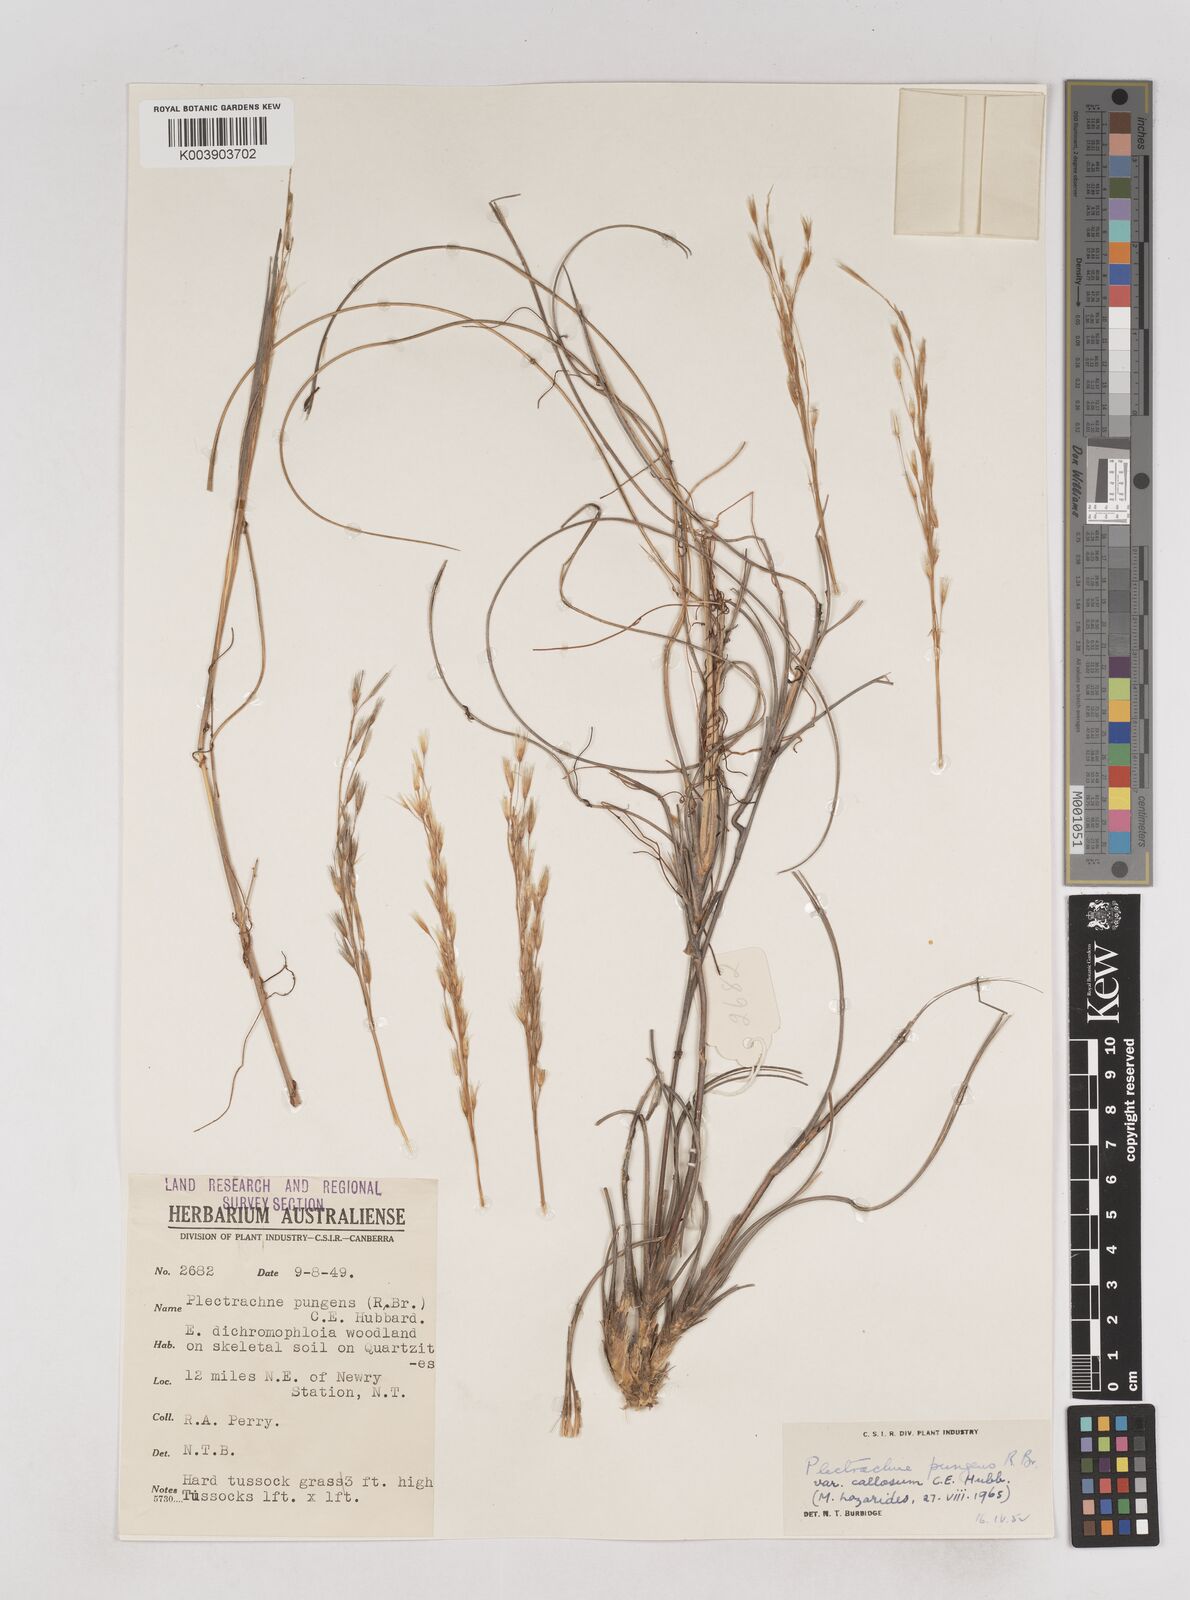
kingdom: Plantae
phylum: Tracheophyta
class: Liliopsida
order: Poales
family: Poaceae
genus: Triodia
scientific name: Triodia bitextura
